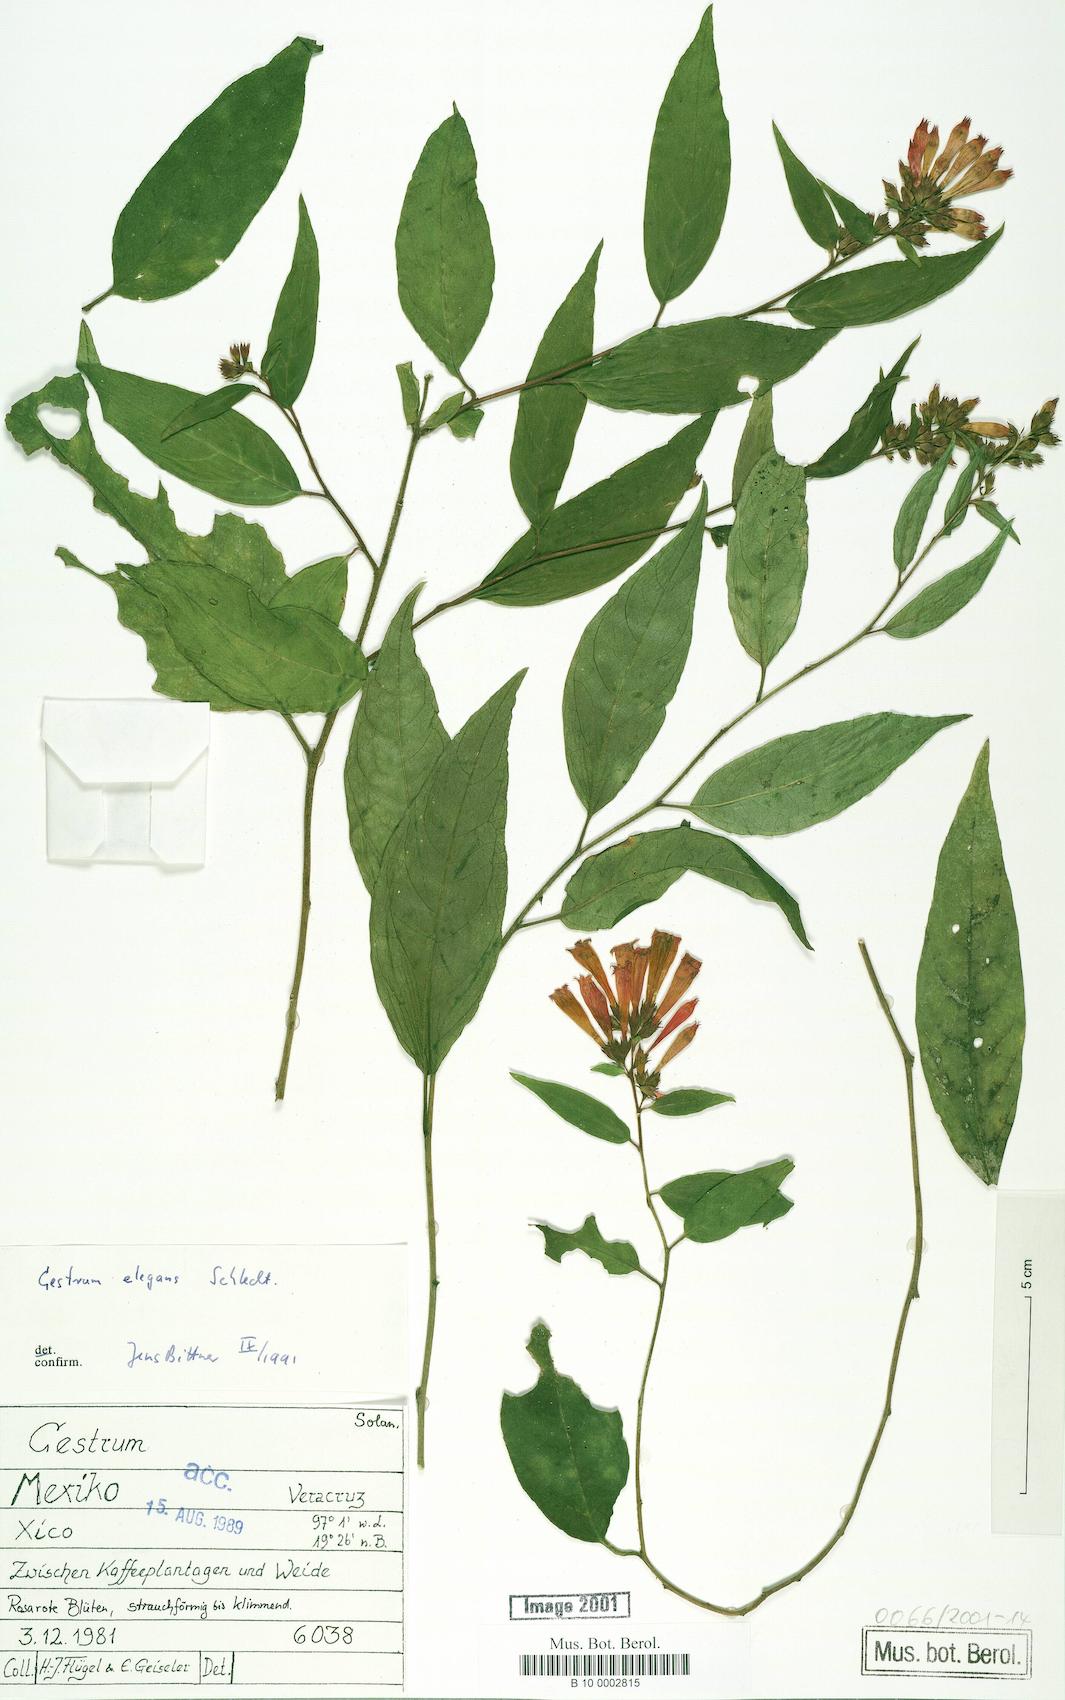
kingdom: Plantae
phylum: Tracheophyta
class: Magnoliopsida
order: Solanales
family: Solanaceae
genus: Cestrum
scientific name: Cestrum elegans
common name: Crimson cestrum
